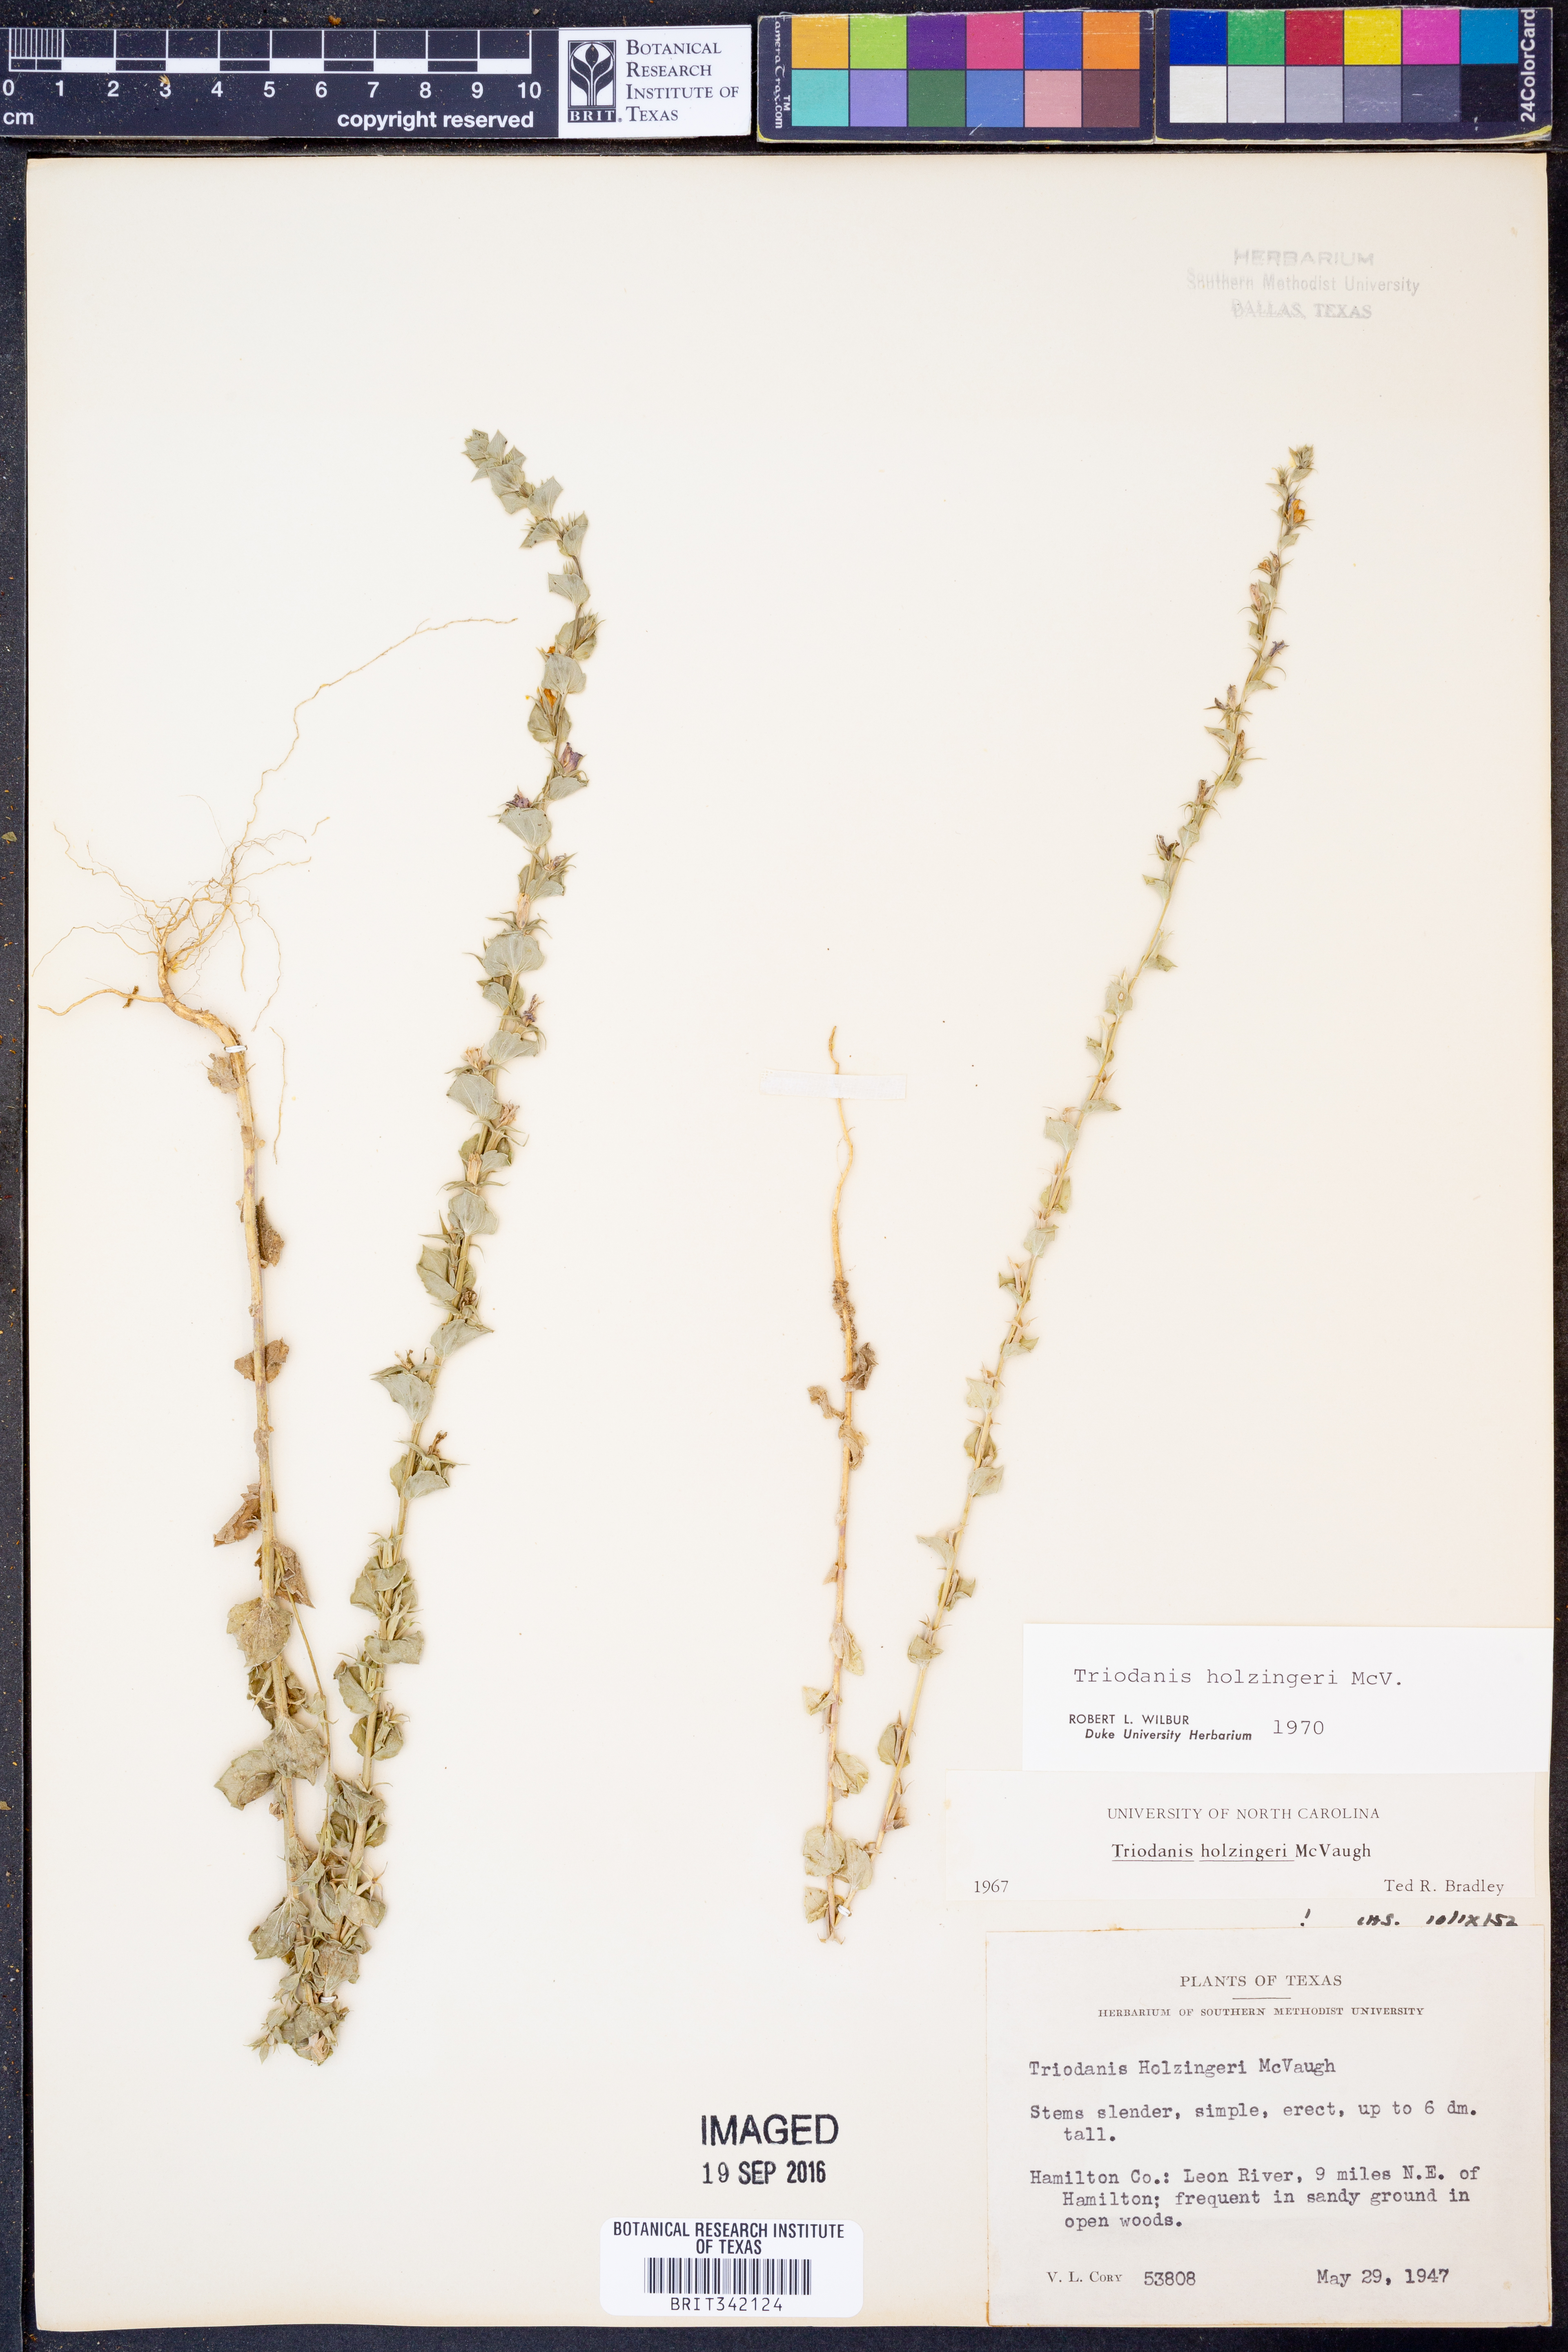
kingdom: Plantae
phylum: Tracheophyta
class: Magnoliopsida
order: Asterales
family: Campanulaceae
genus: Triodanis
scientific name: Triodanis holzingeri
